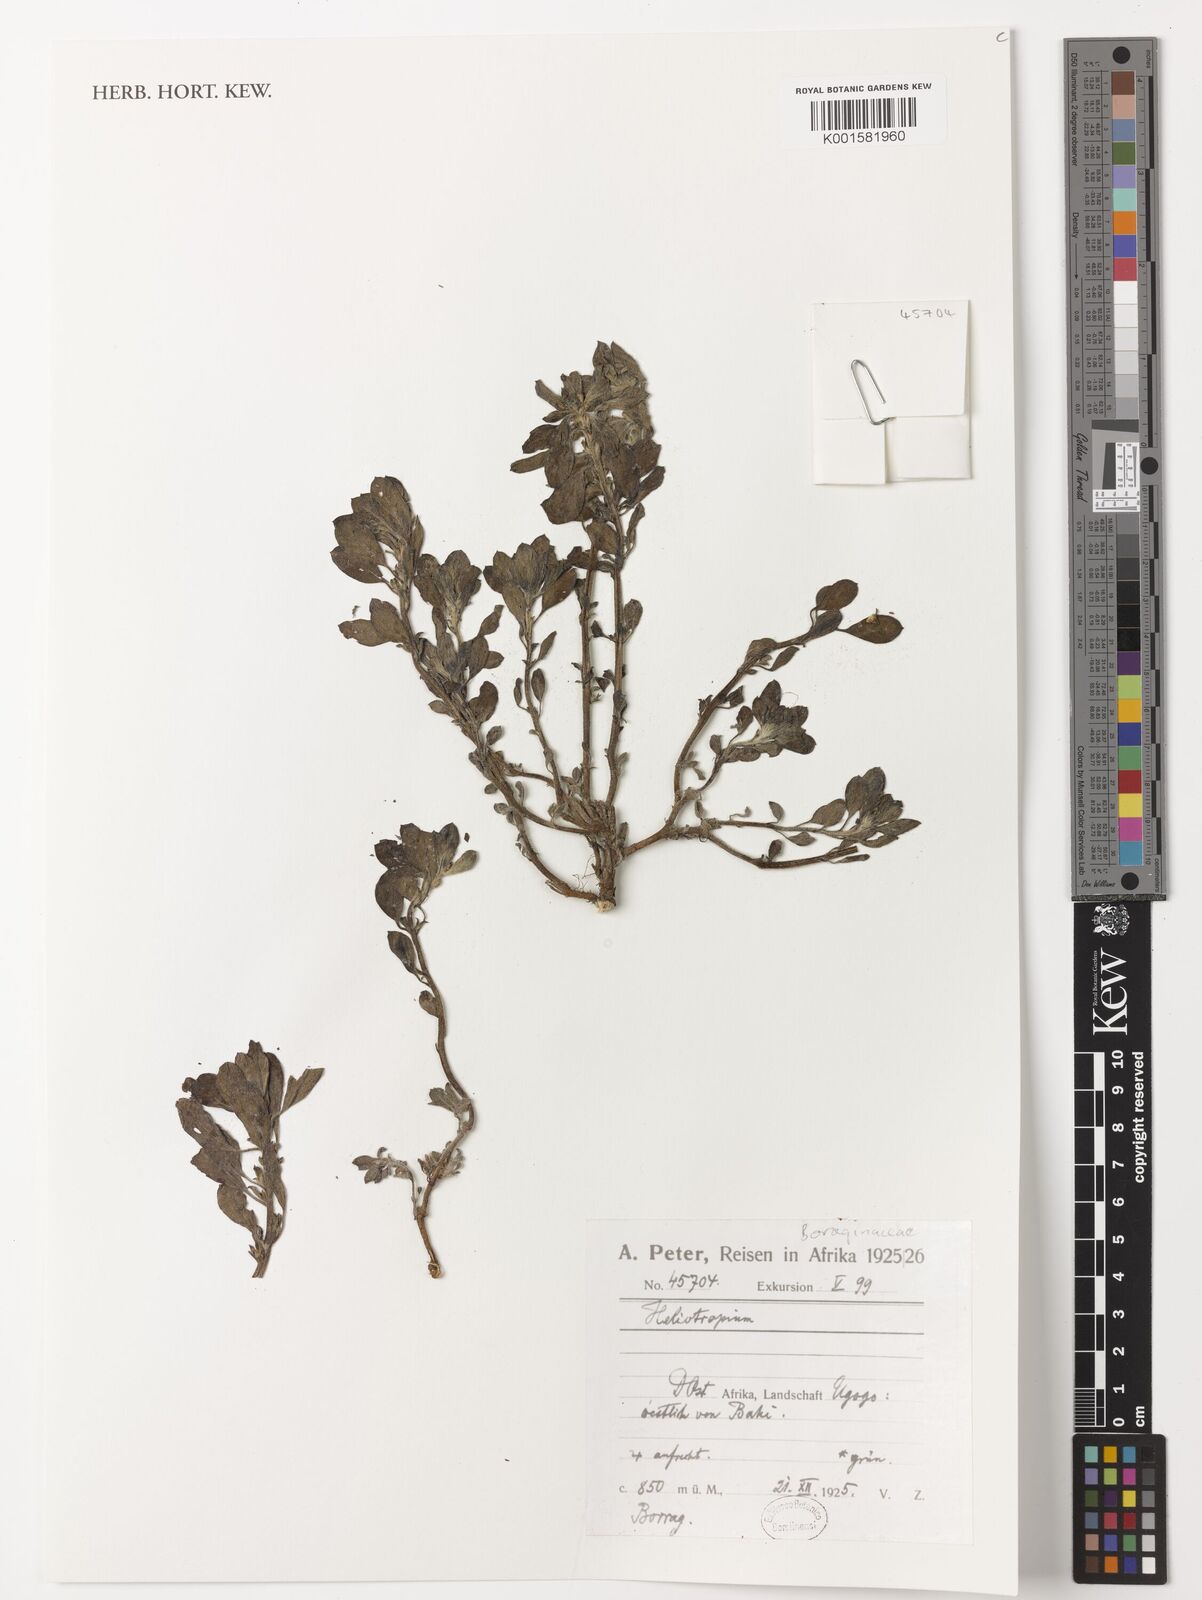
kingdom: Plantae
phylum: Tracheophyta
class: Magnoliopsida
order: Boraginales
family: Heliotropiaceae
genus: Heliotropium
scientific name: Heliotropium
